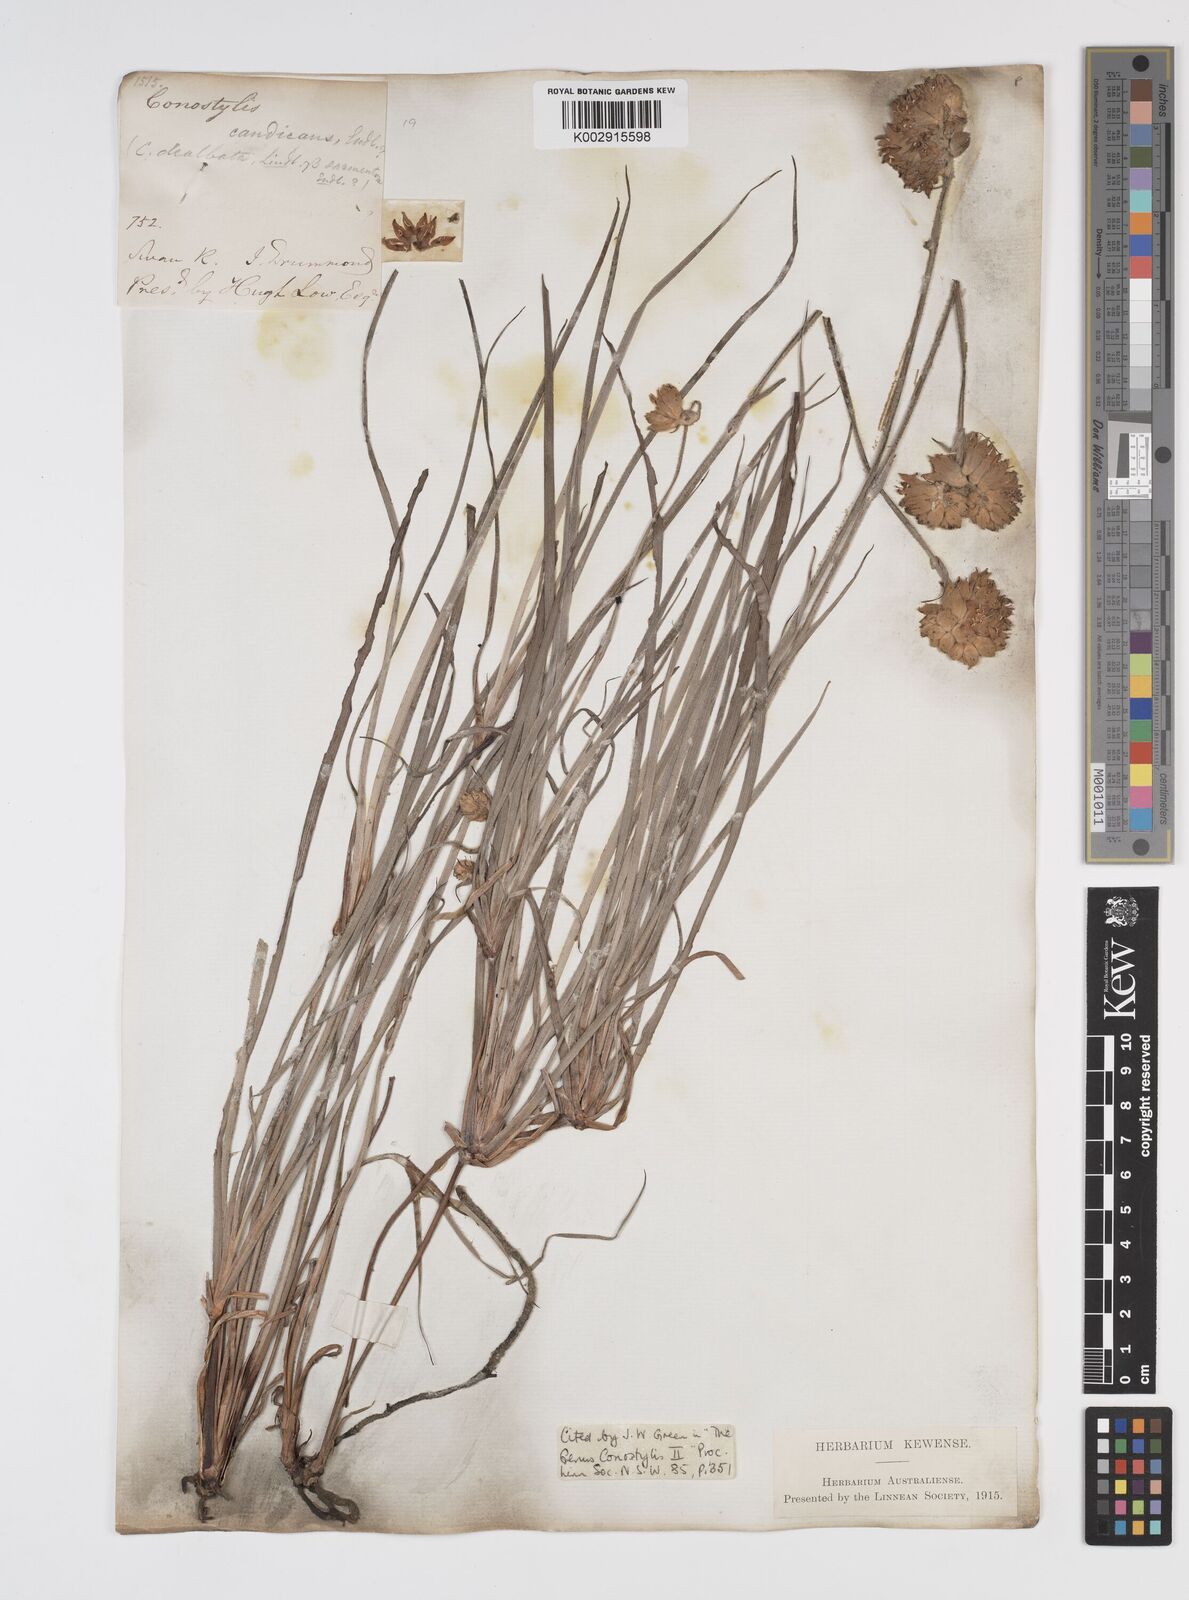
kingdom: Plantae
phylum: Tracheophyta
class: Liliopsida
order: Commelinales
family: Haemodoraceae
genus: Conostylis
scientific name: Conostylis candicans
